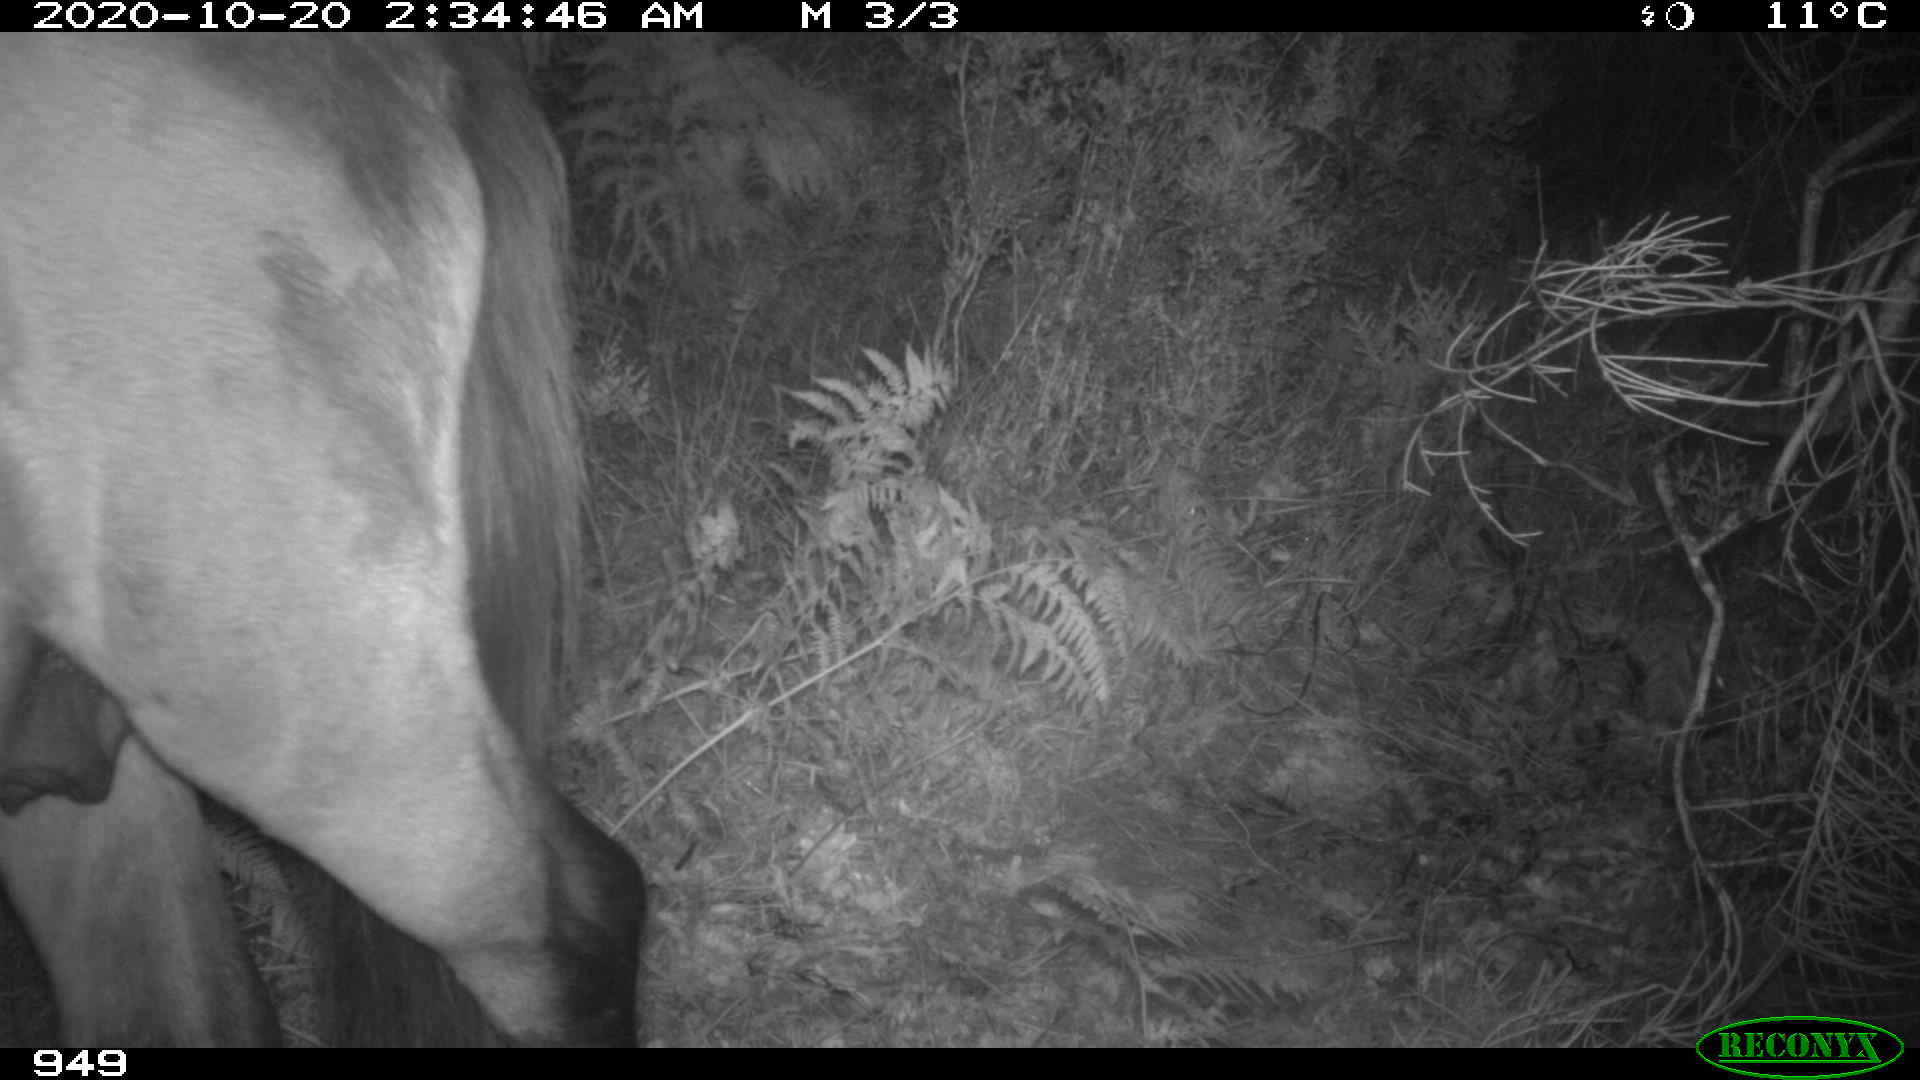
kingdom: Animalia
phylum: Chordata
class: Mammalia
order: Perissodactyla
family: Equidae
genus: Equus
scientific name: Equus caballus
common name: Horse
